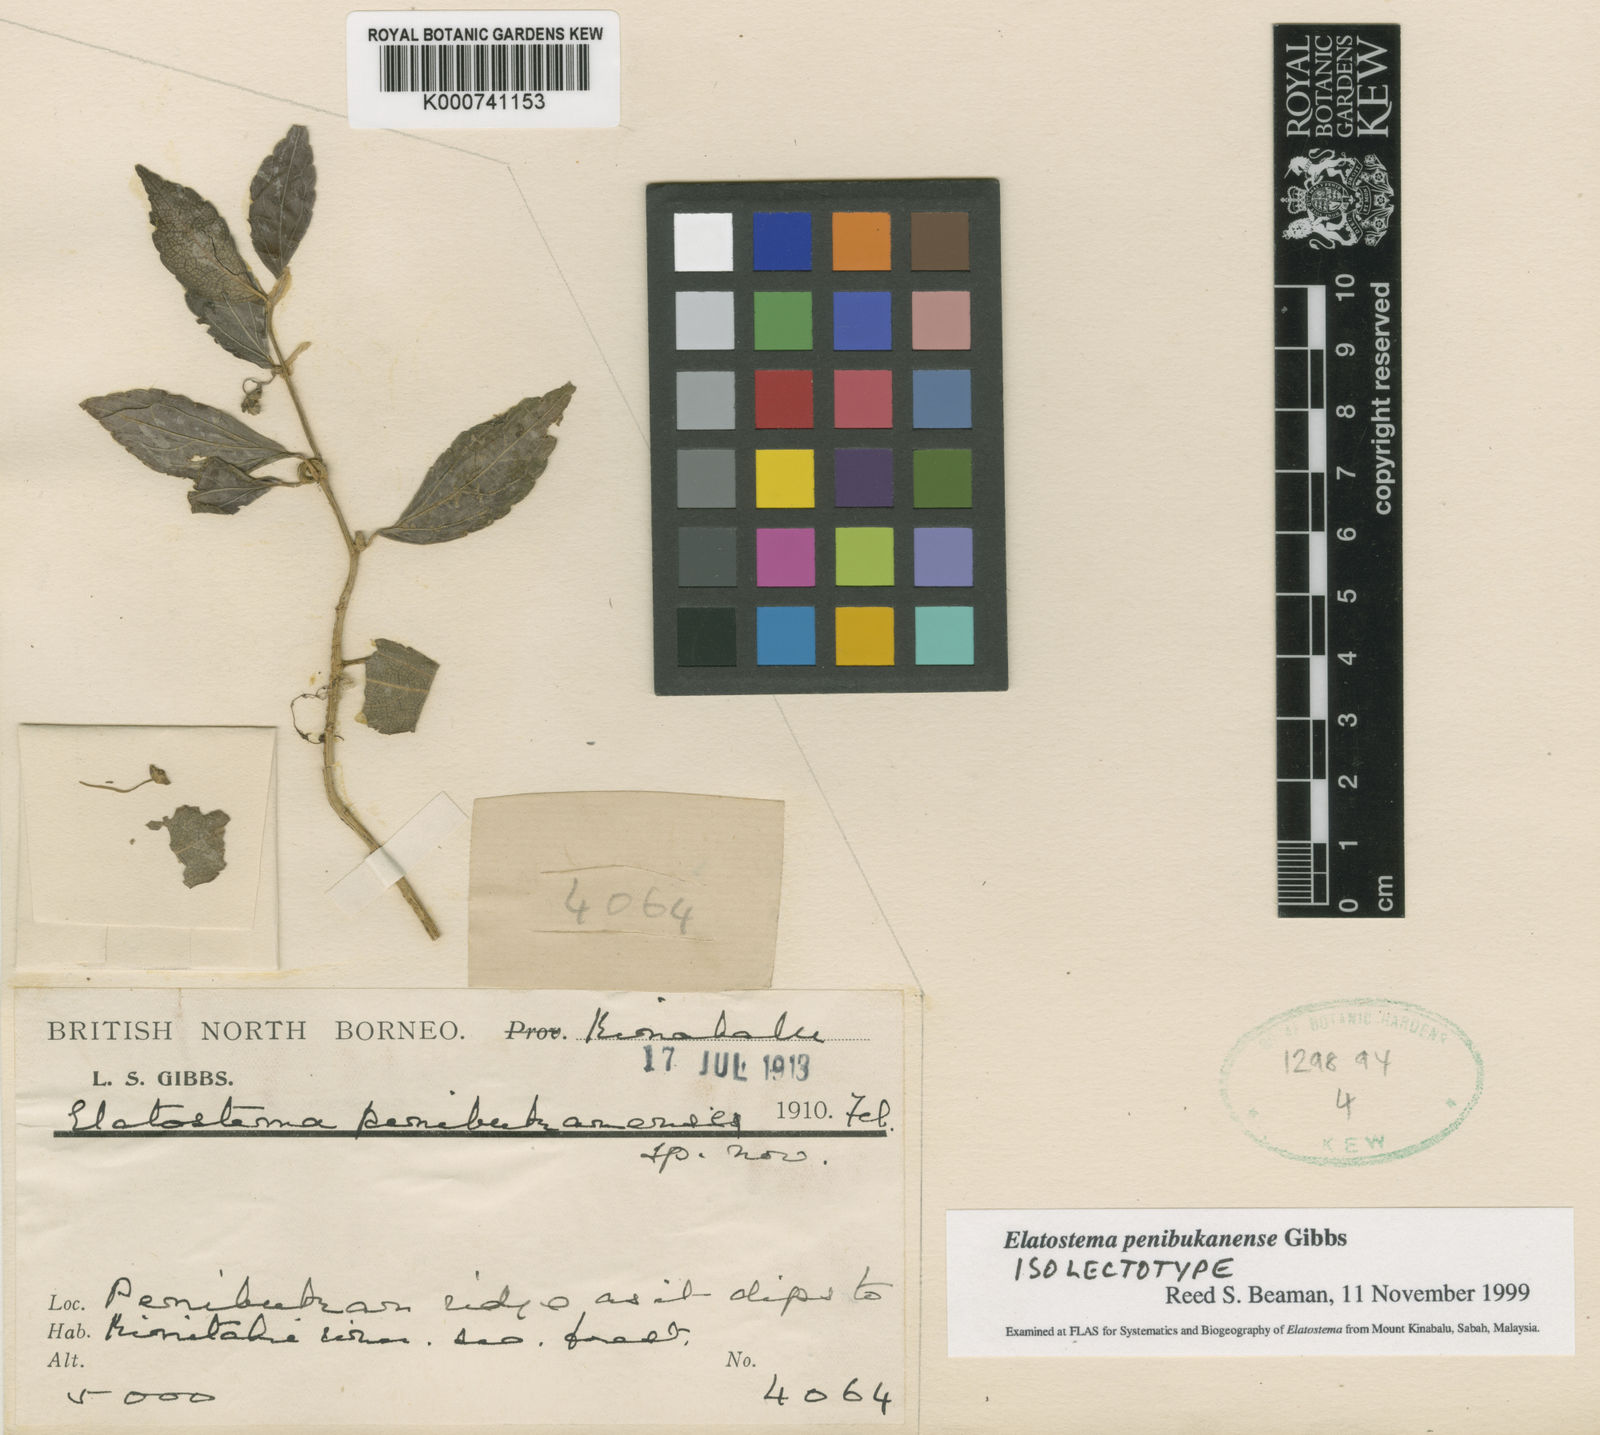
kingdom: Plantae
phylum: Tracheophyta
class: Magnoliopsida
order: Rosales
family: Urticaceae
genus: Elatostema
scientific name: Elatostema penibukanense
